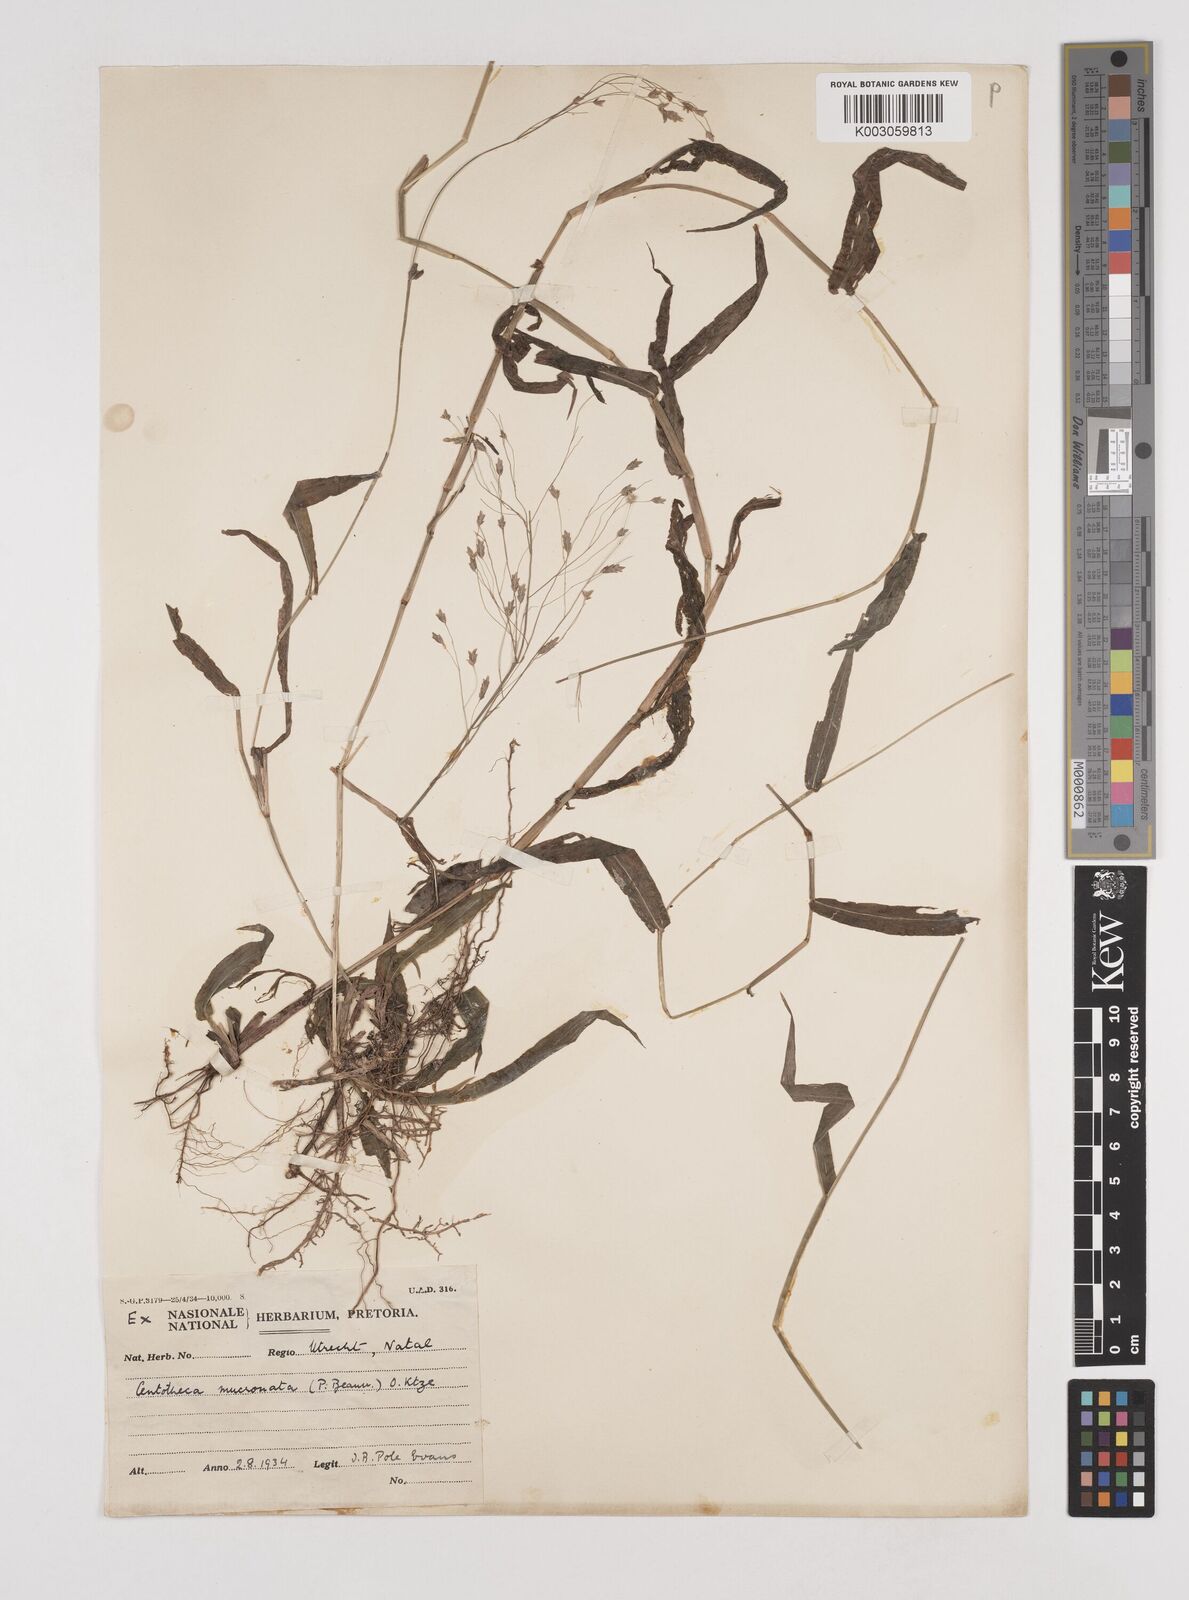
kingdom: Plantae
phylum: Tracheophyta
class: Liliopsida
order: Poales
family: Poaceae
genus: Megastachya
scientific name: Megastachya mucronata
